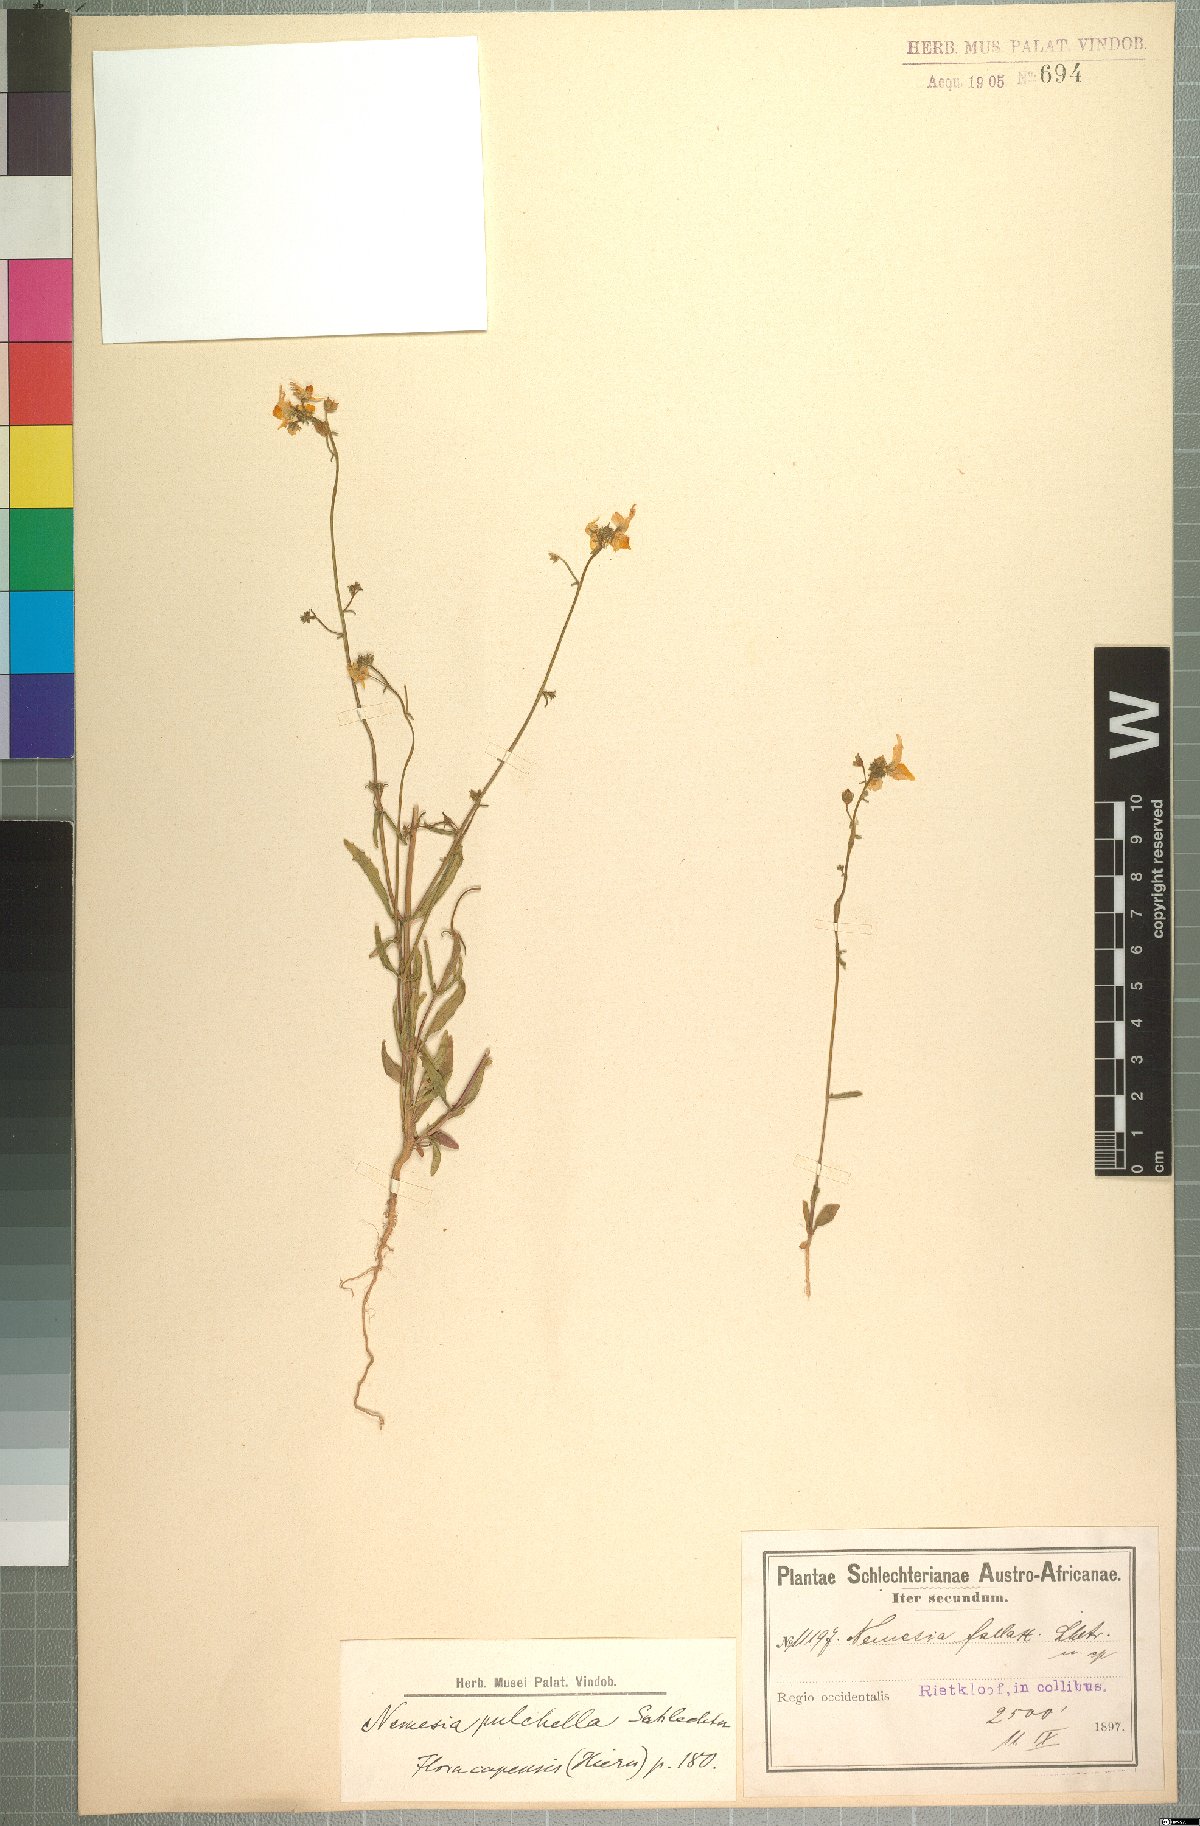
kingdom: Plantae
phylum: Tracheophyta
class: Magnoliopsida
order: Lamiales
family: Scrophulariaceae
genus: Nemesia
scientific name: Nemesia pulchella
